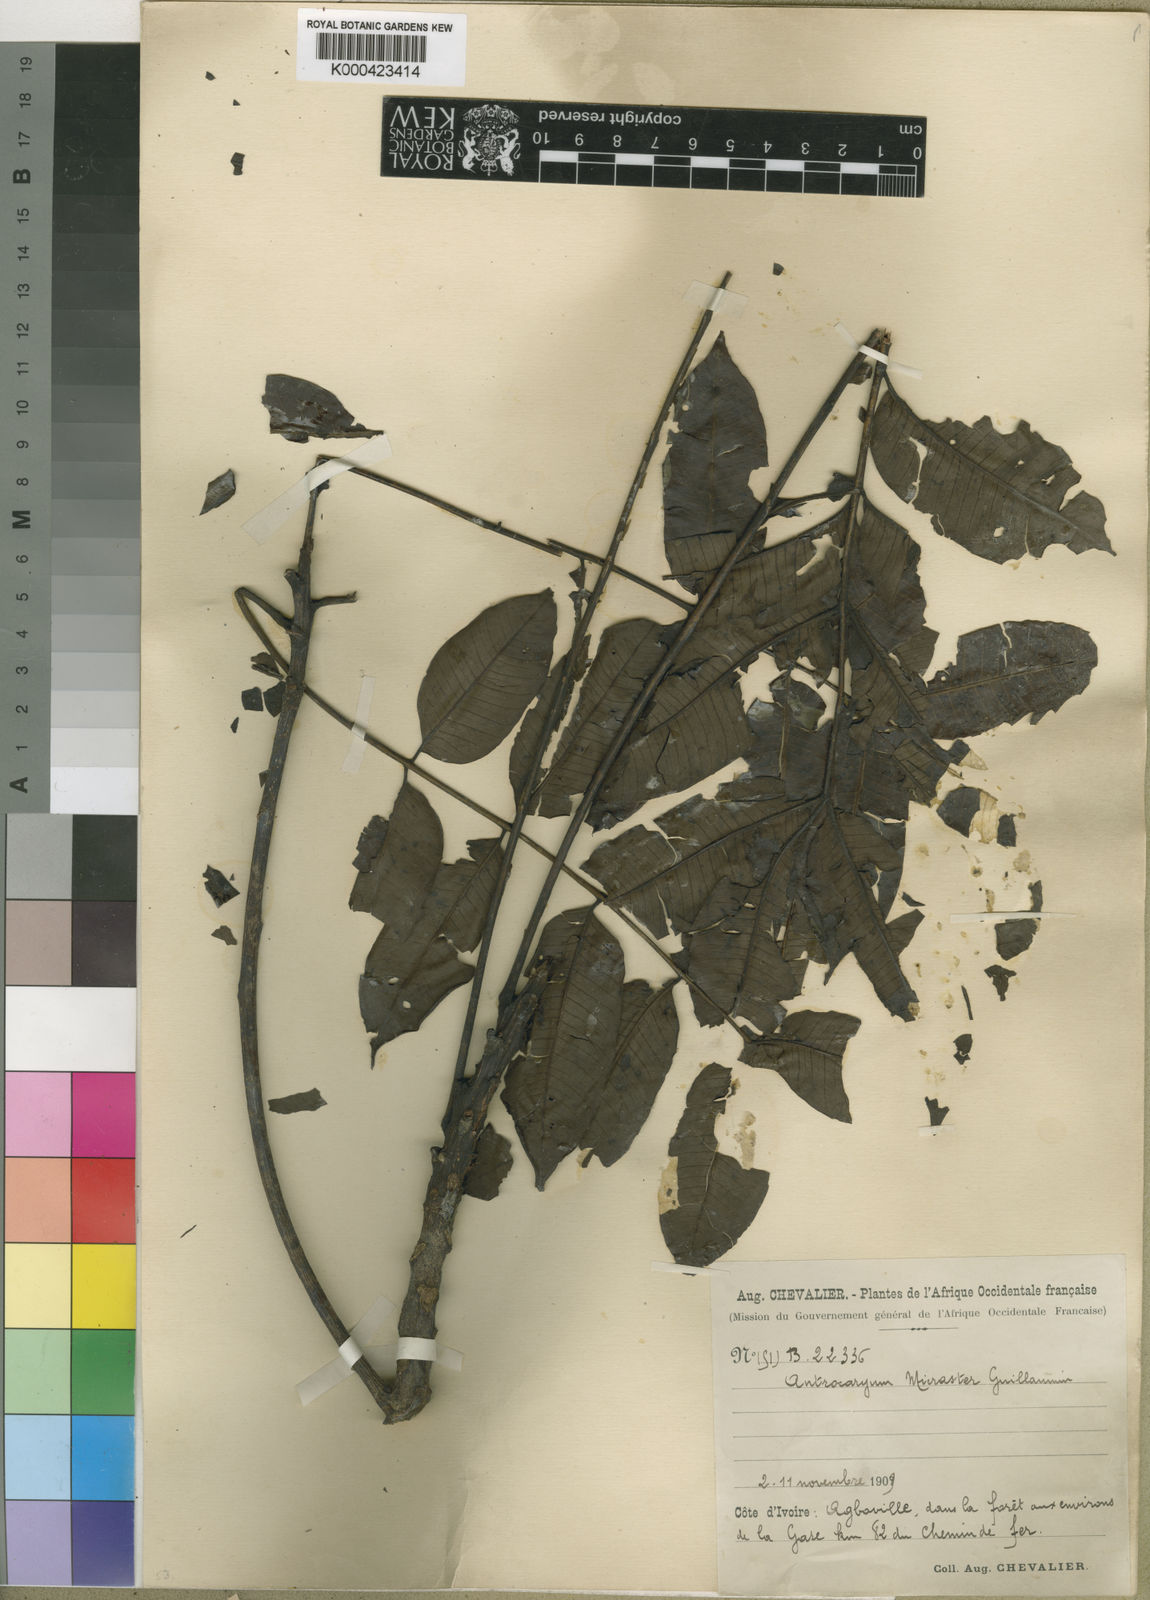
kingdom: Plantae
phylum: Tracheophyta
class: Magnoliopsida
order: Sapindales
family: Anacardiaceae
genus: Antrocaryon
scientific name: Antrocaryon micraster
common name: Antrocaryon
